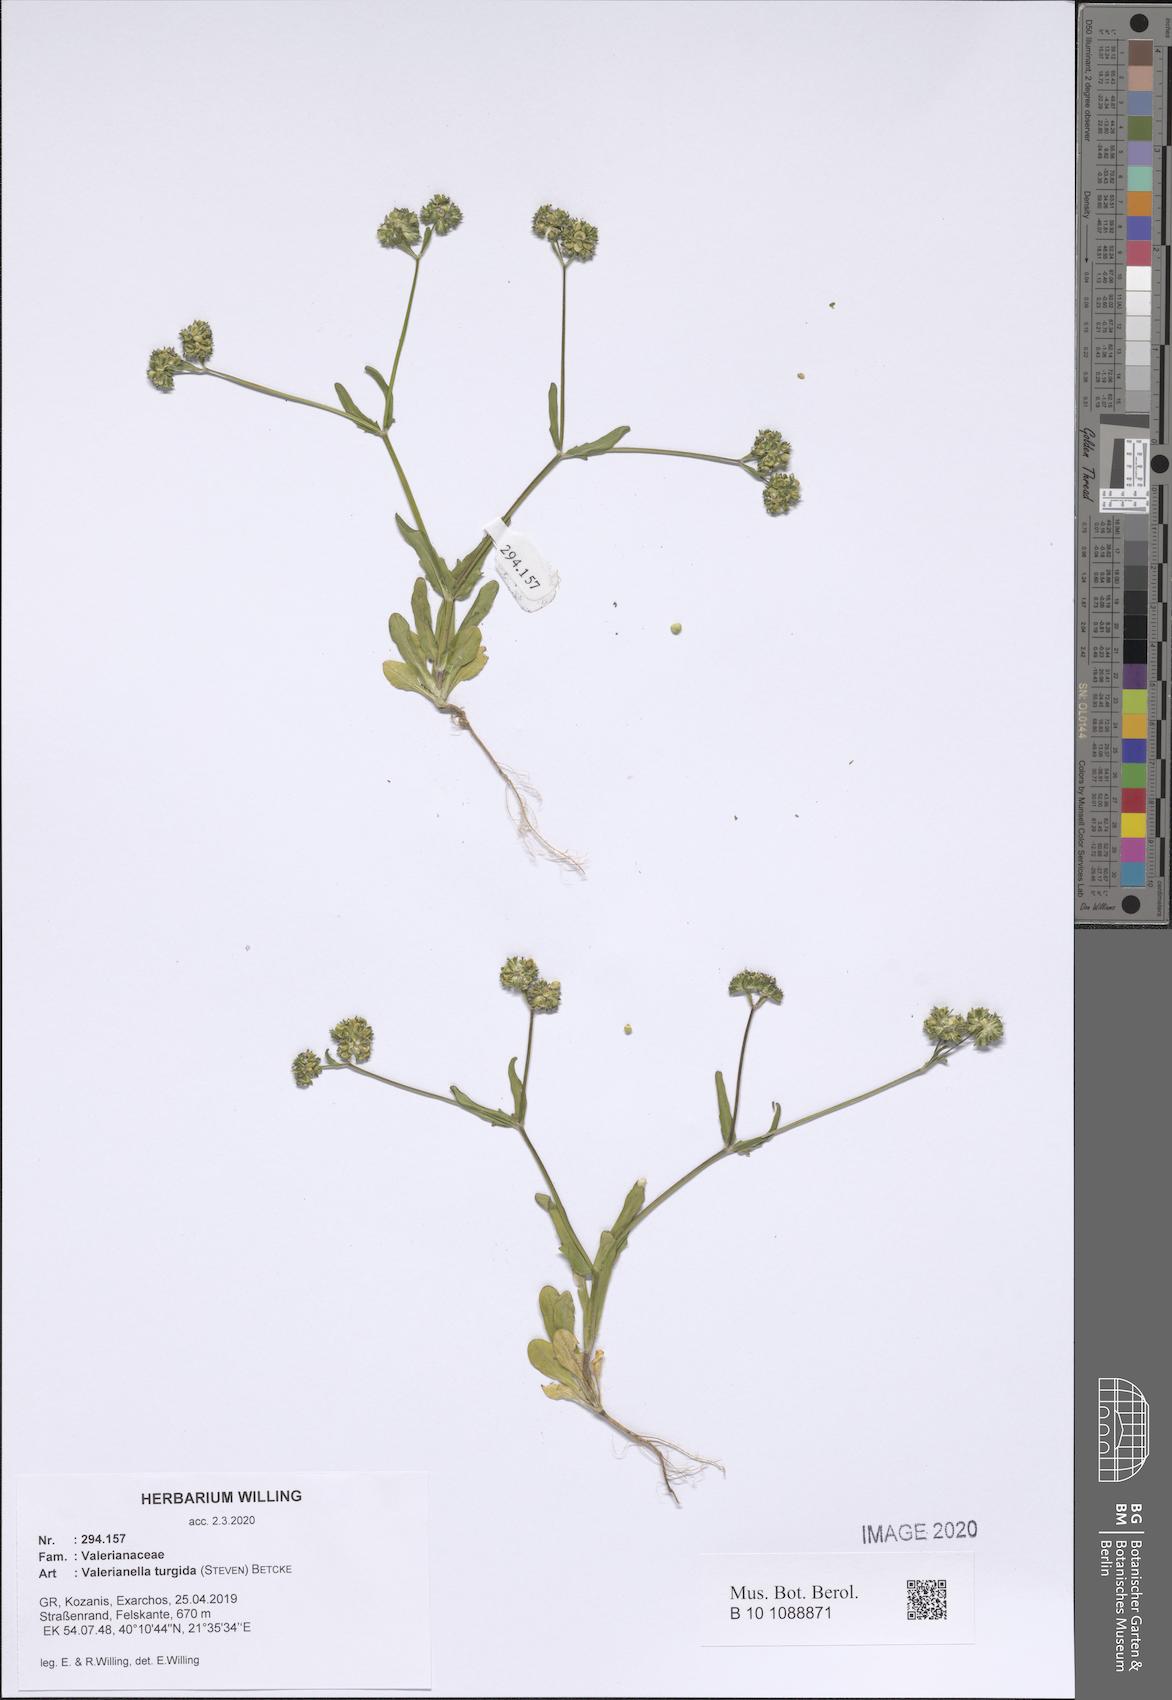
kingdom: Plantae
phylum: Tracheophyta
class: Magnoliopsida
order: Dipsacales
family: Caprifoliaceae
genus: Valerianella
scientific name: Valerianella turgida
